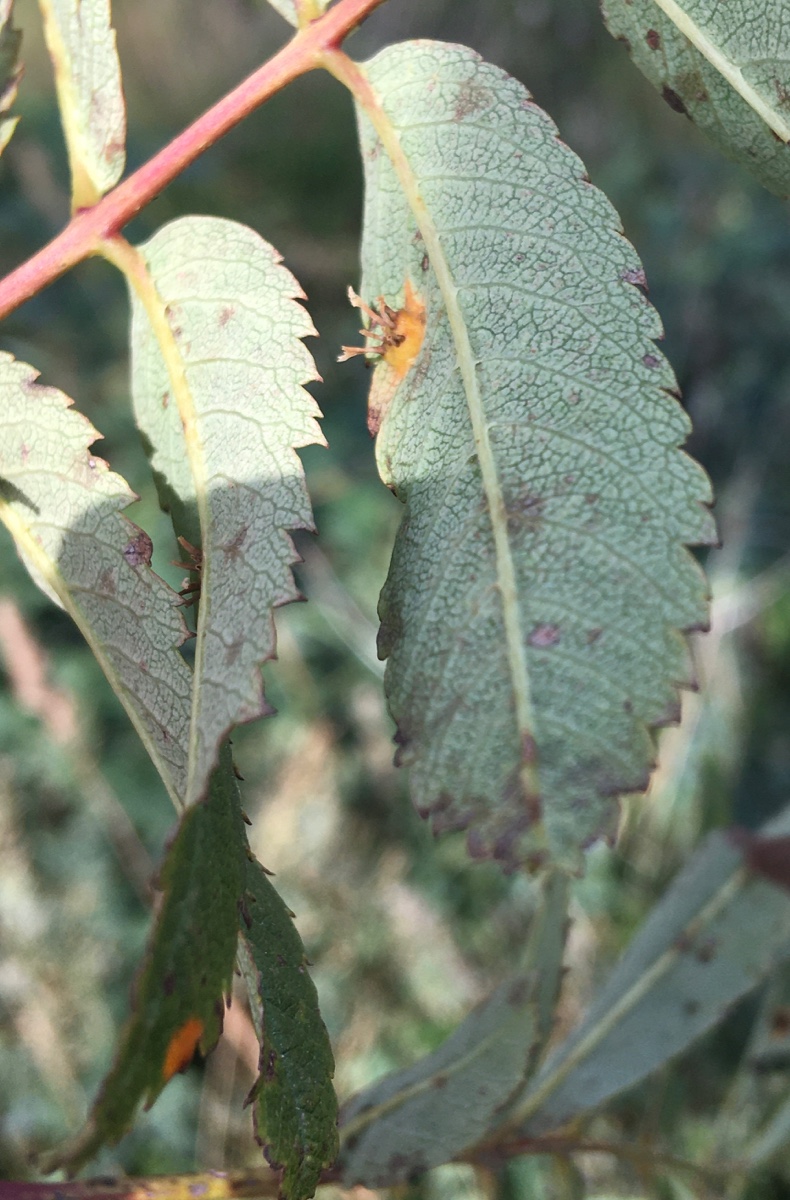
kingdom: Fungi
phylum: Basidiomycota
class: Pucciniomycetes
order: Pucciniales
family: Gymnosporangiaceae
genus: Gymnosporangium
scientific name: Gymnosporangium cornutum
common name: rønnehorn-bævrerust
